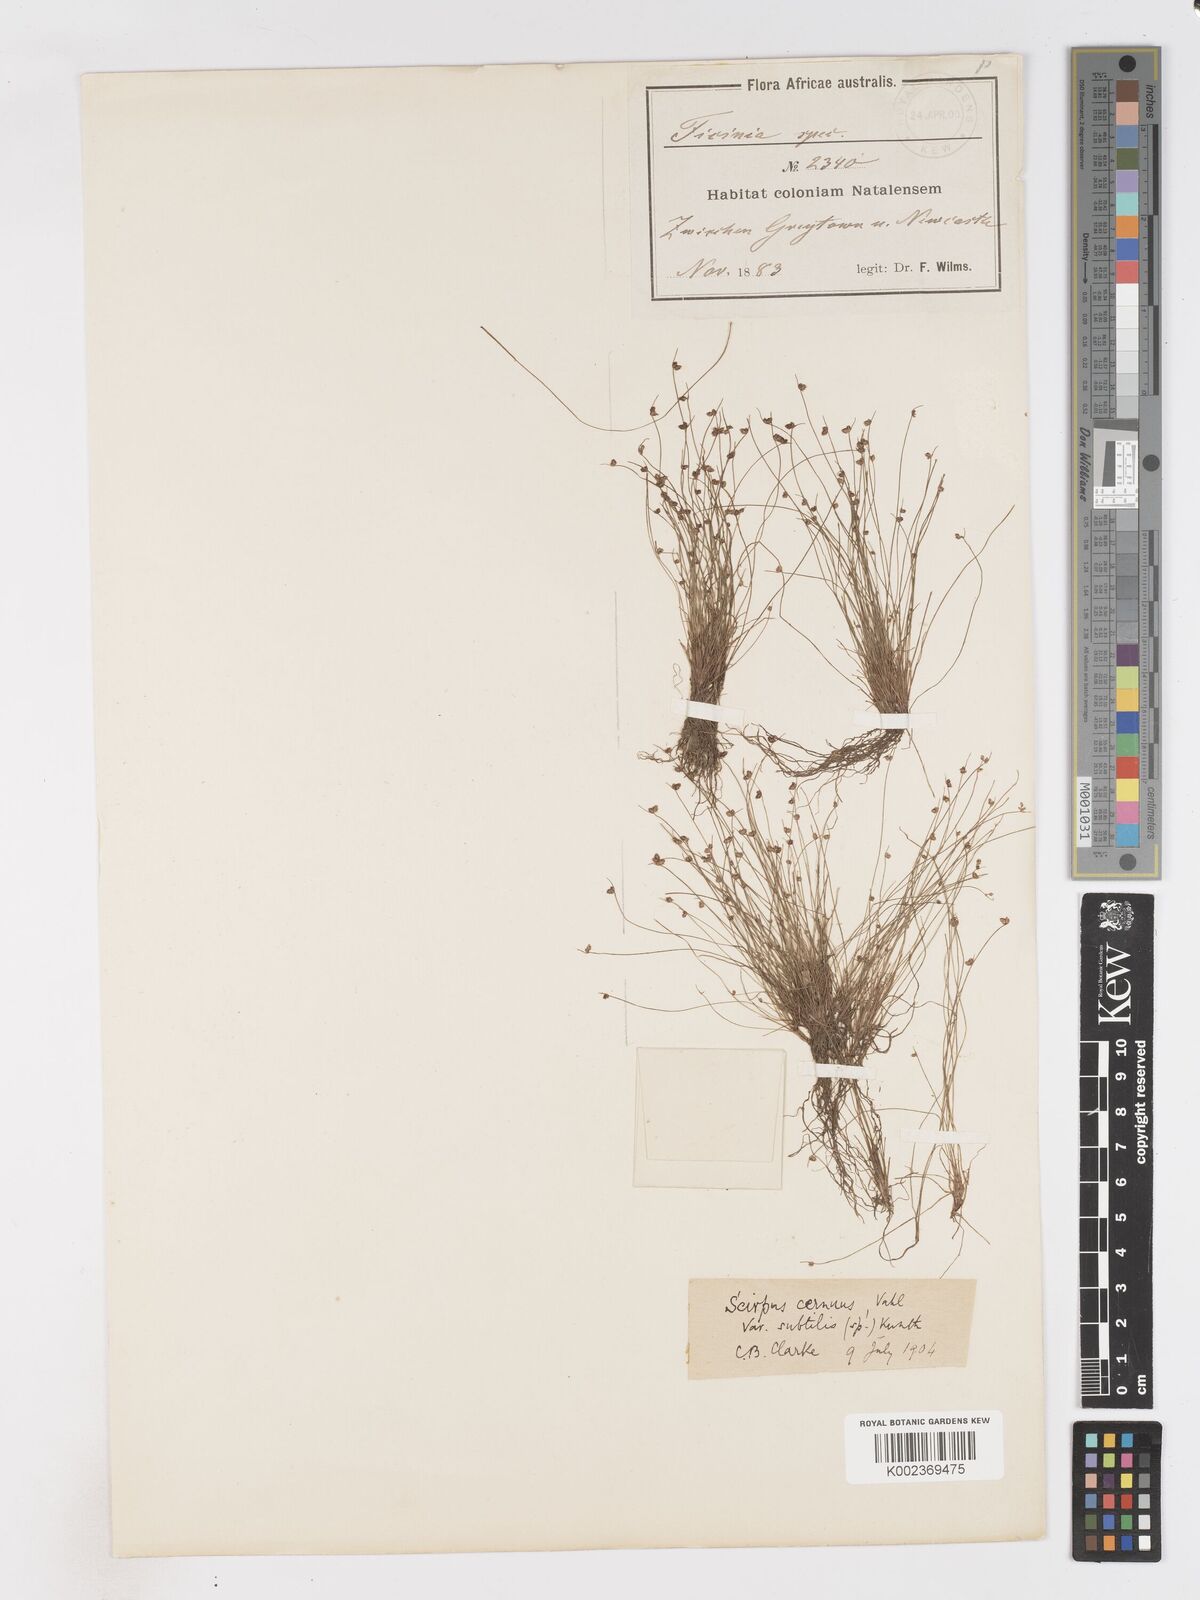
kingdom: Plantae
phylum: Tracheophyta
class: Liliopsida
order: Poales
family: Cyperaceae
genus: Isolepis
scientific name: Isolepis sepulcralis
